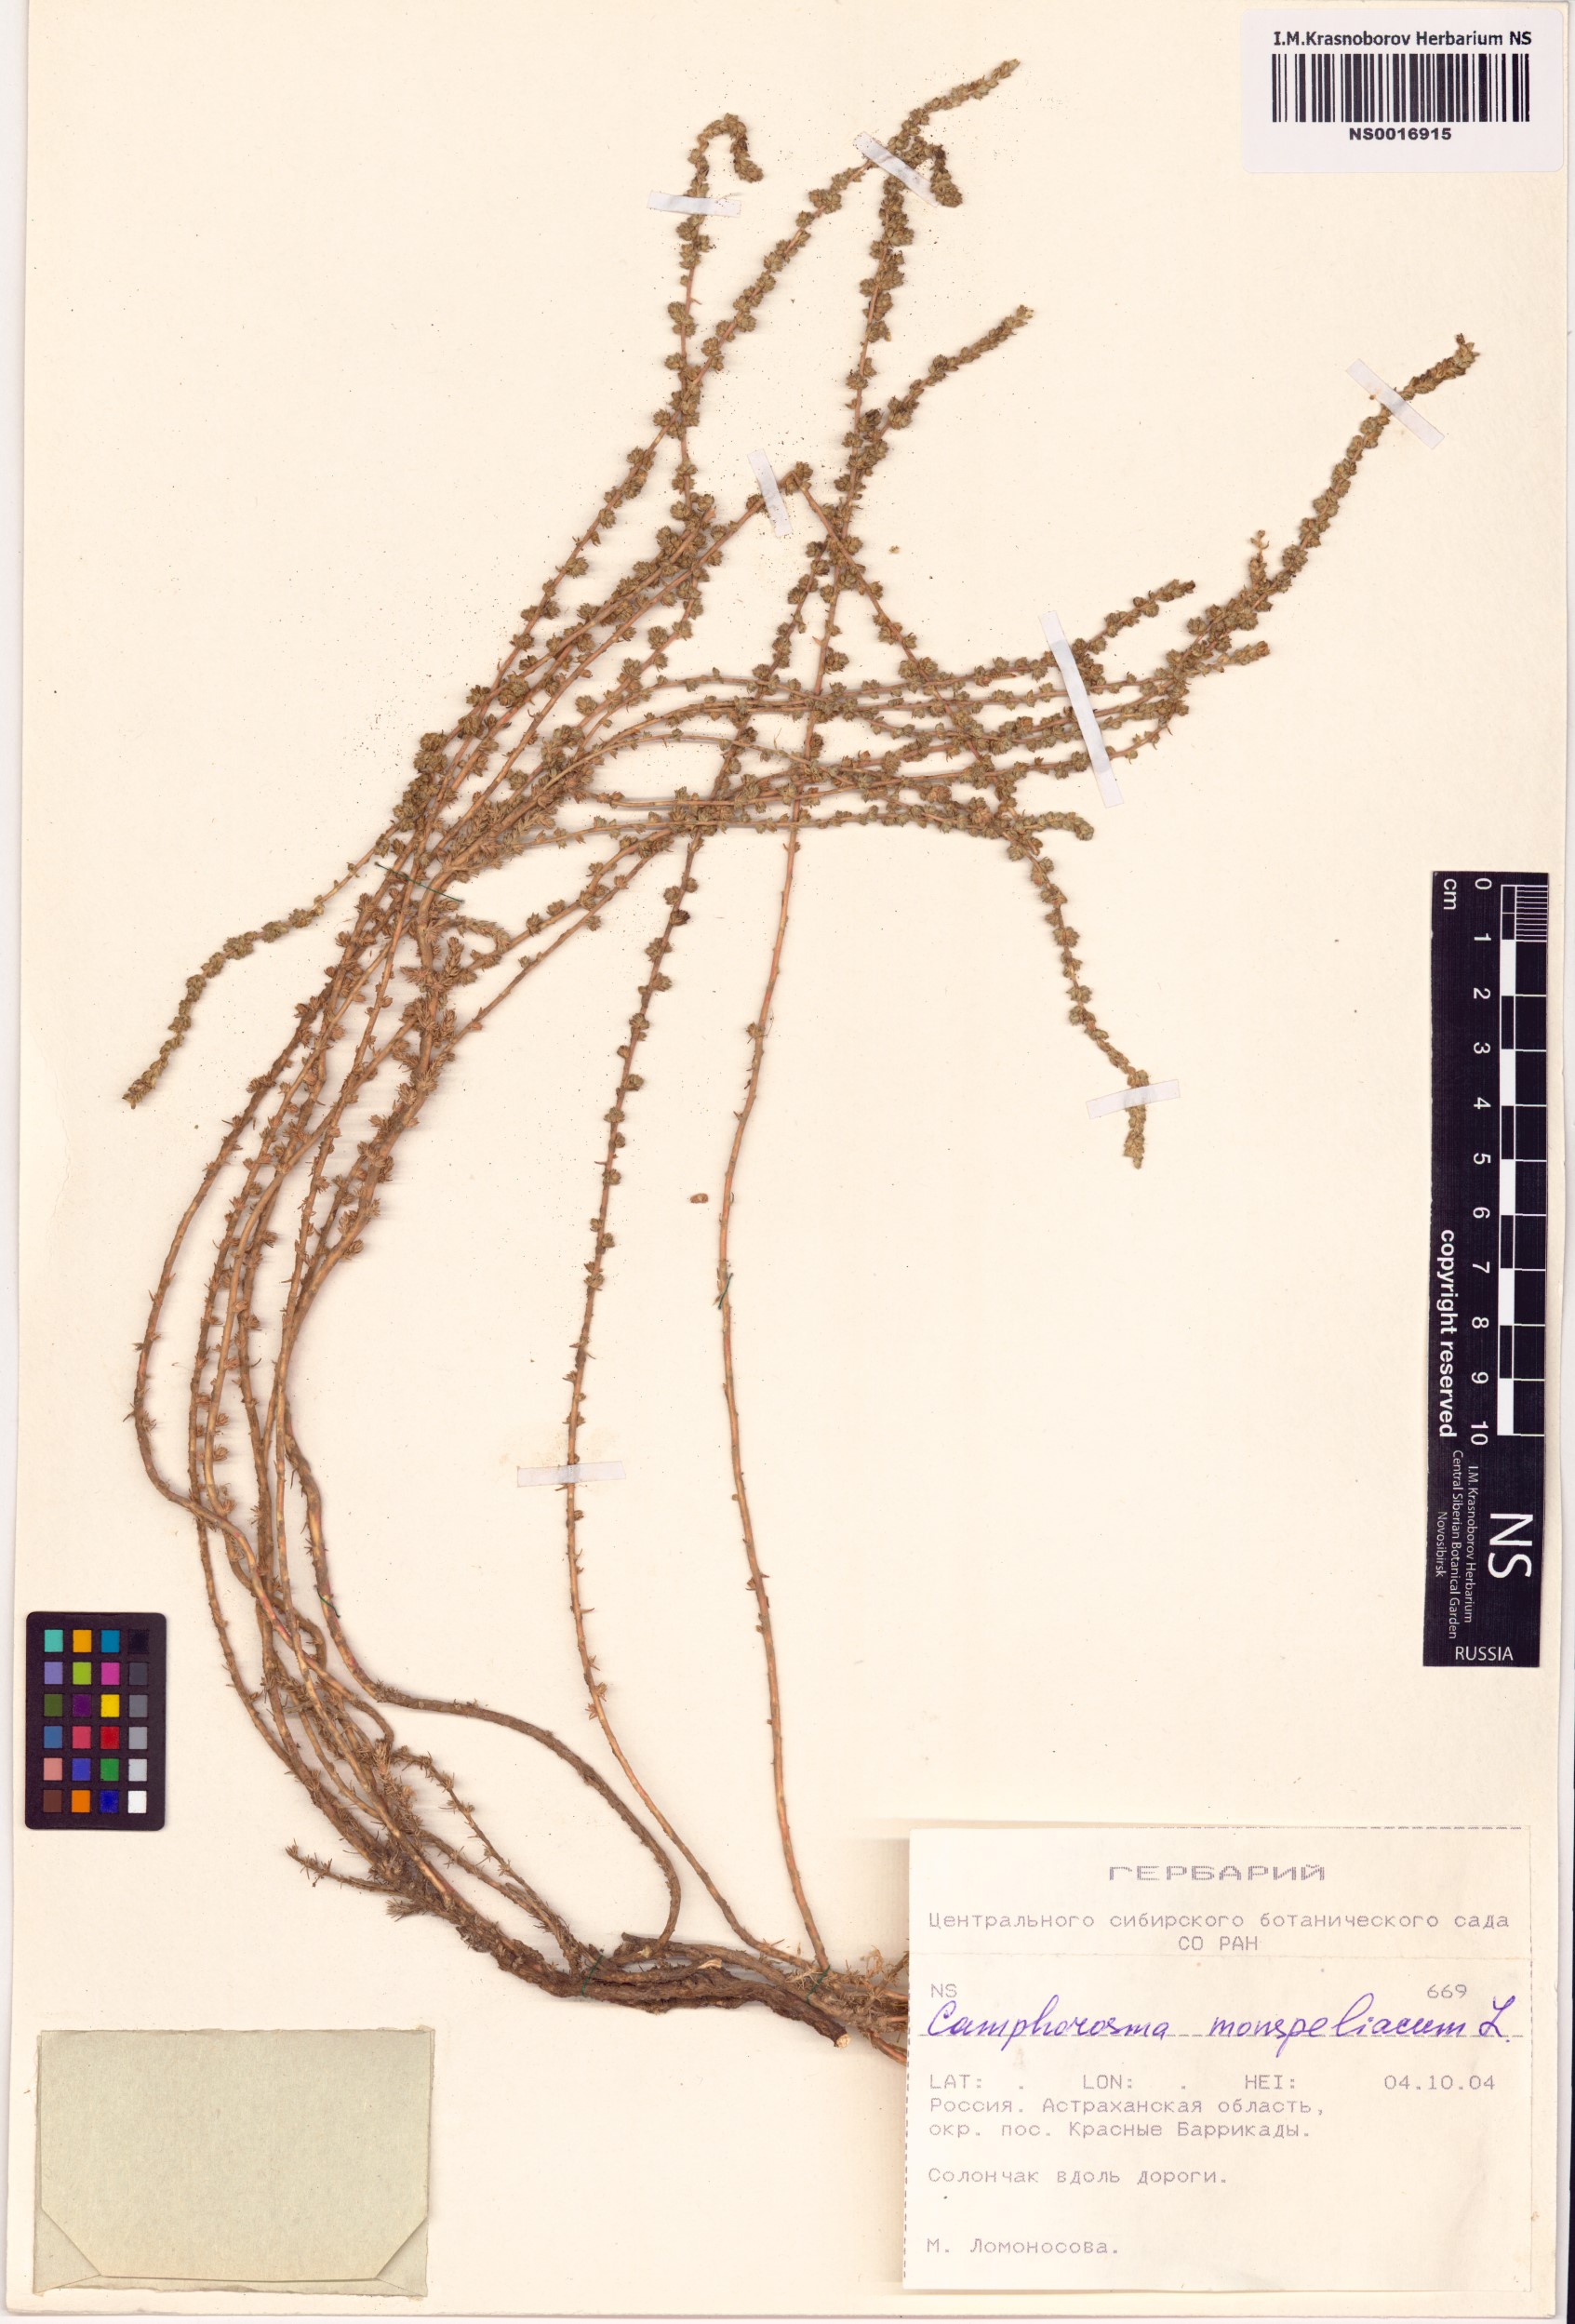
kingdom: Plantae
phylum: Tracheophyta
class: Magnoliopsida
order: Caryophyllales
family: Amaranthaceae
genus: Camphorosma
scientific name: Camphorosma monspeliaca
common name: Camphorfume
